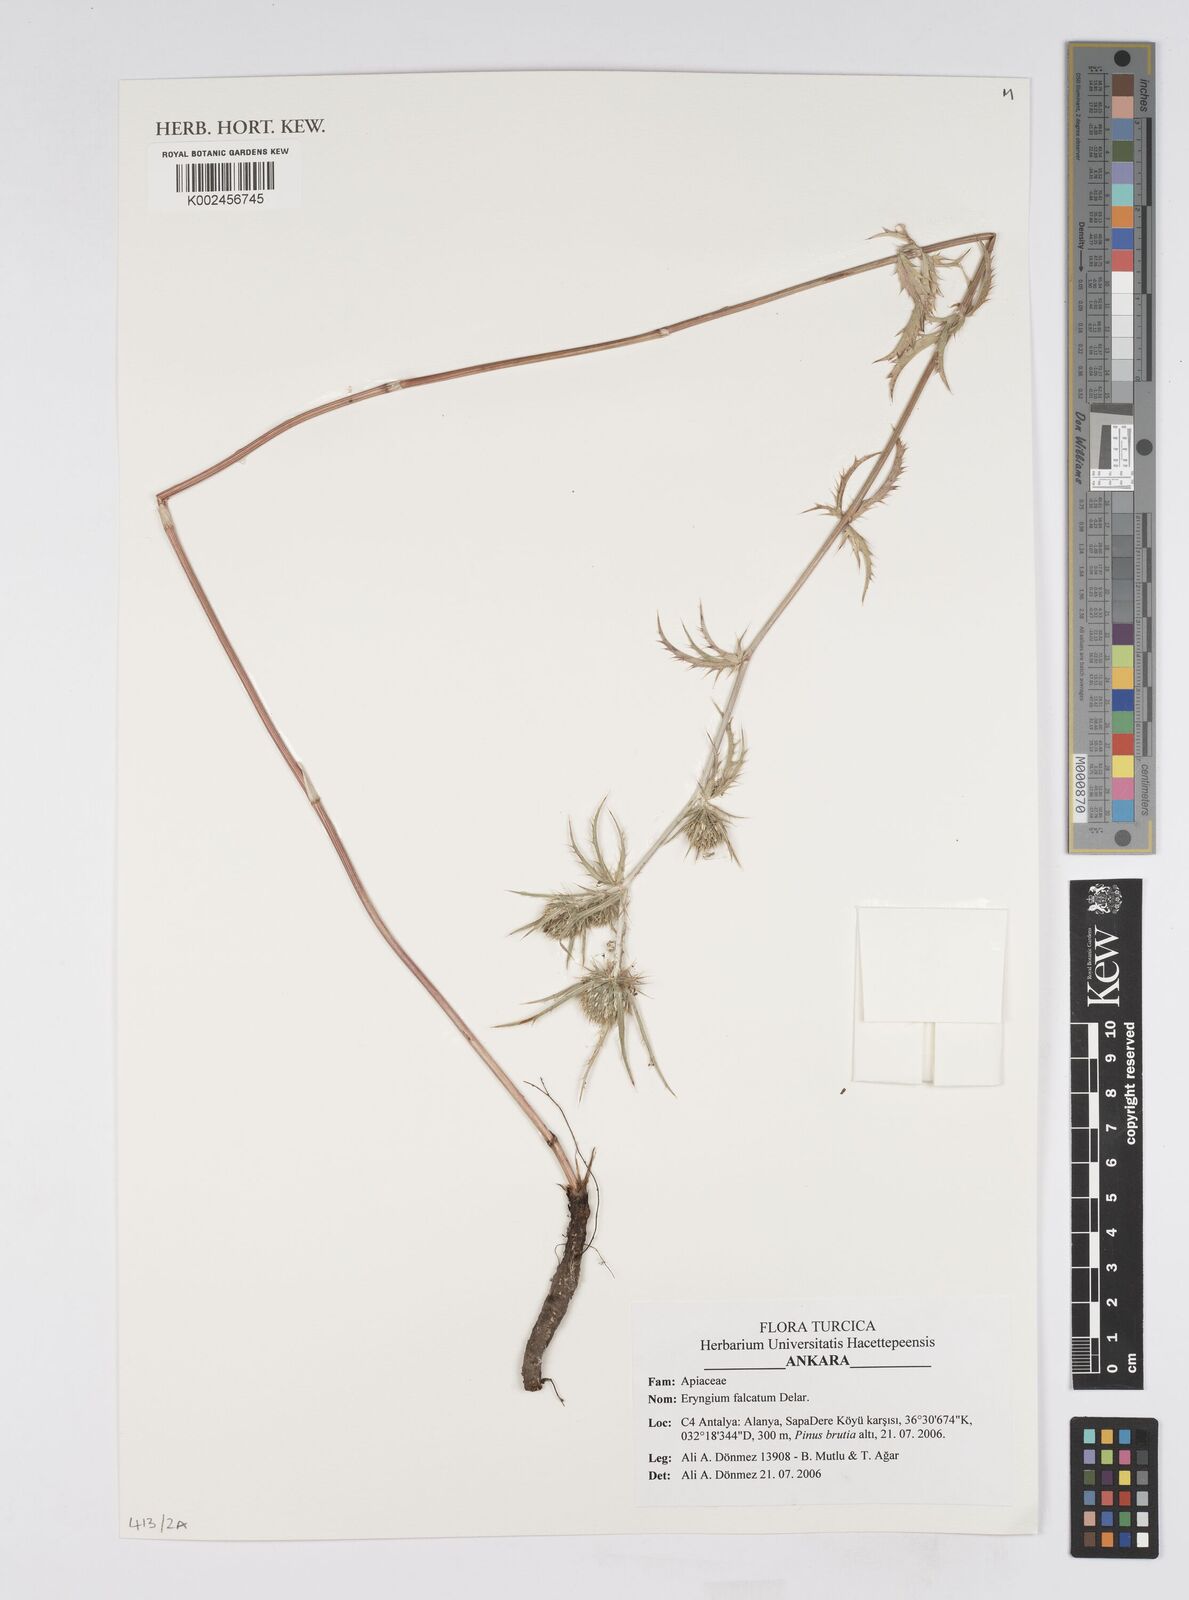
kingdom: Plantae
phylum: Tracheophyta
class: Magnoliopsida
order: Apiales
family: Apiaceae
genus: Eryngium
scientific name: Eryngium falcatum
